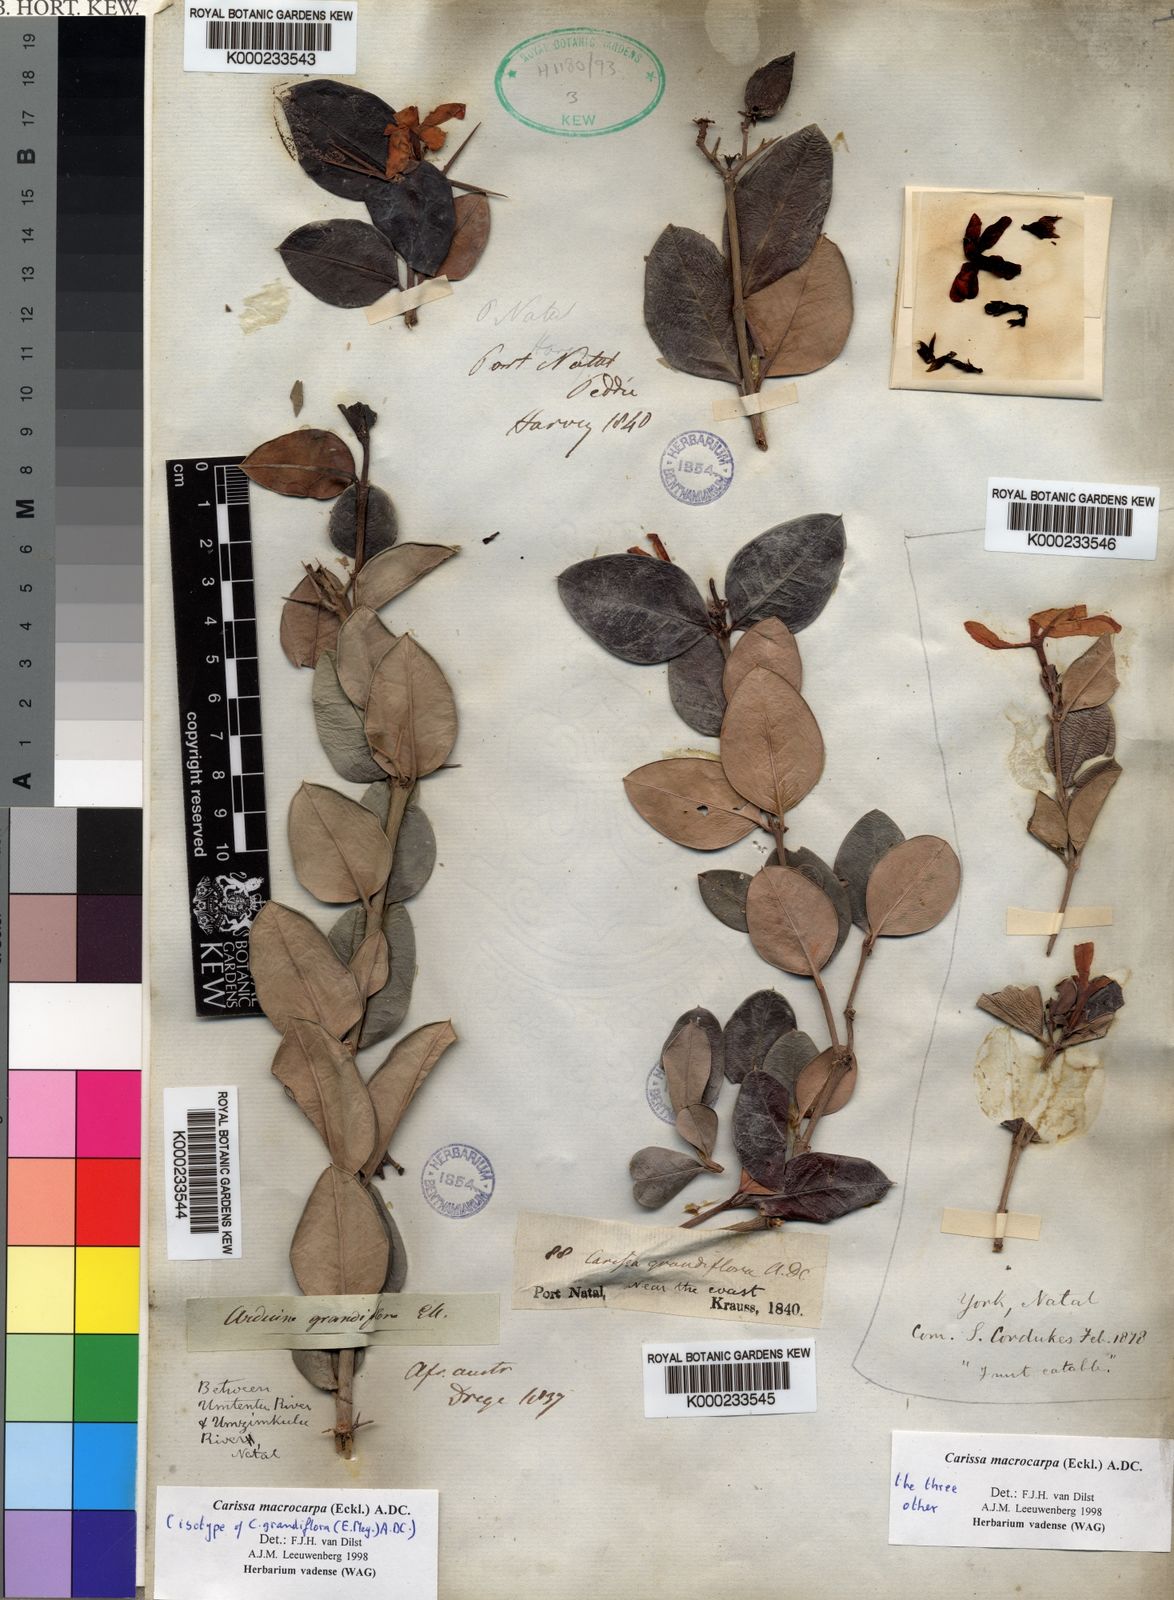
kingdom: Plantae
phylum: Tracheophyta
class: Magnoliopsida
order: Gentianales
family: Apocynaceae
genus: Carissa
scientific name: Carissa macrocarpa
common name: Natal plum
